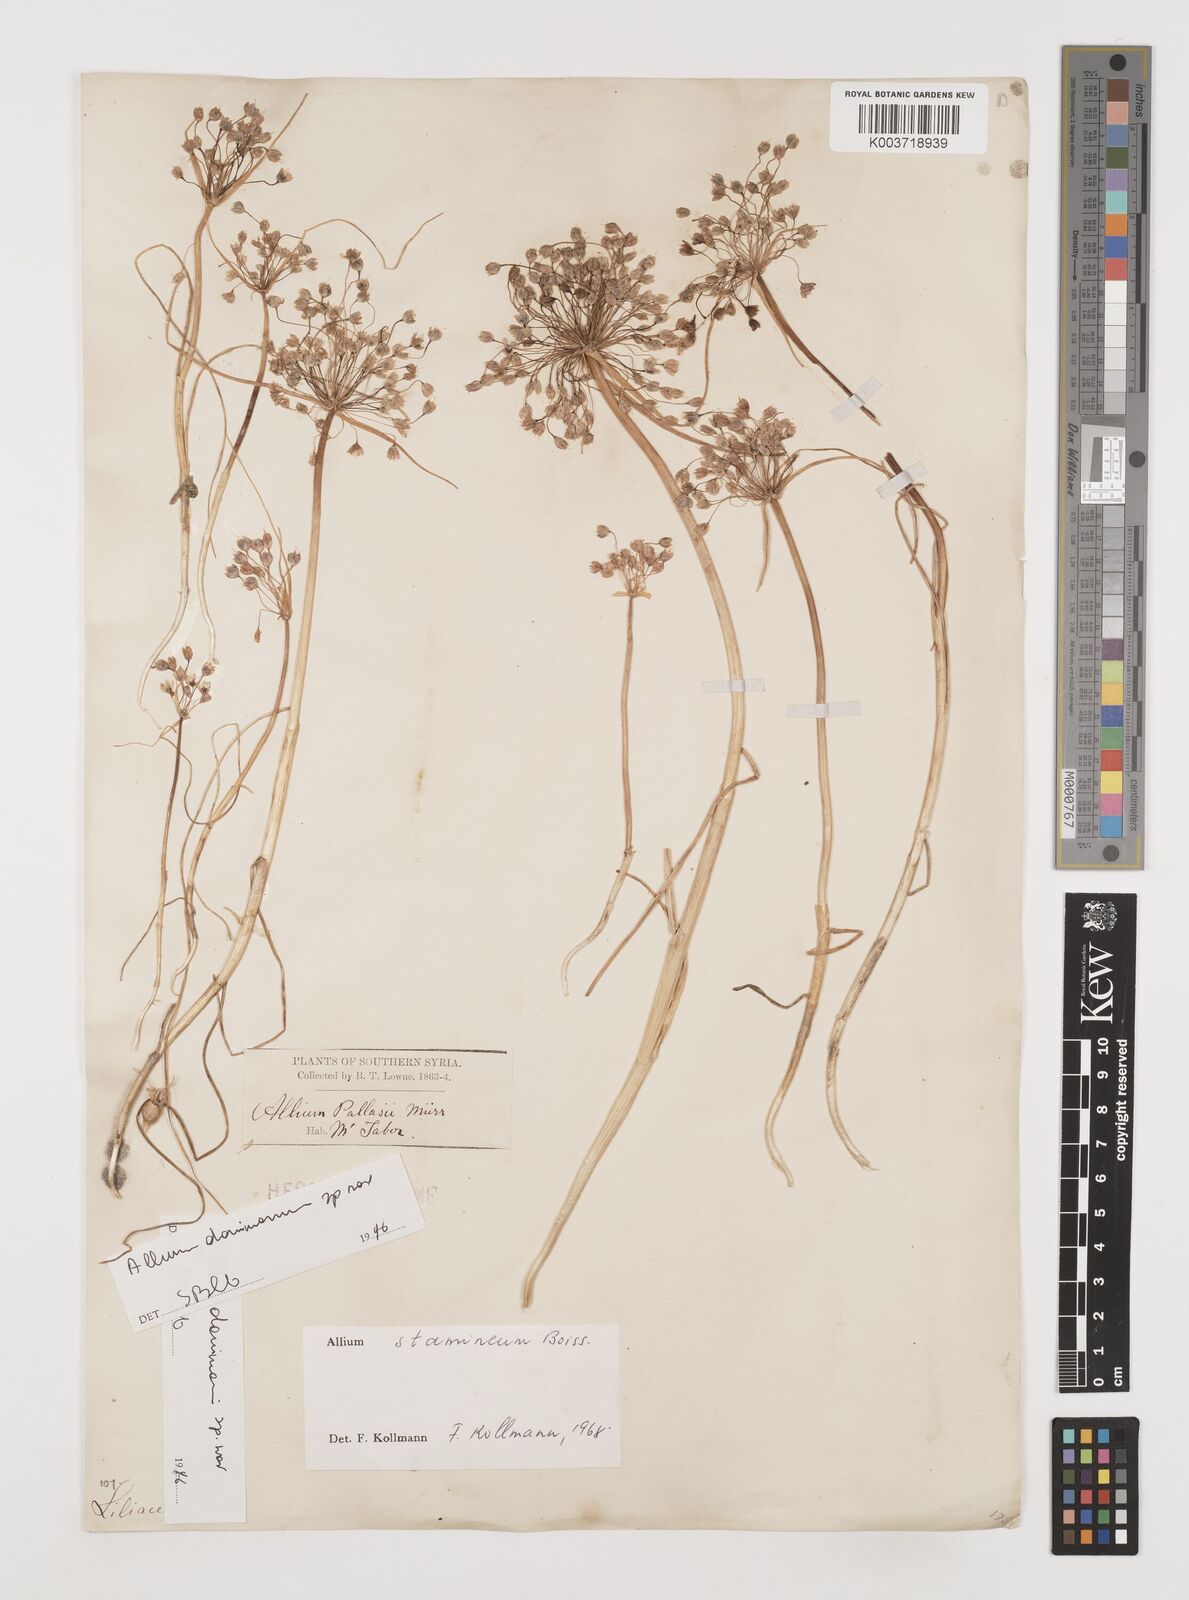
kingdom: Plantae
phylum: Tracheophyta
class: Liliopsida
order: Asparagales
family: Amaryllidaceae
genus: Allium
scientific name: Allium stamineum
